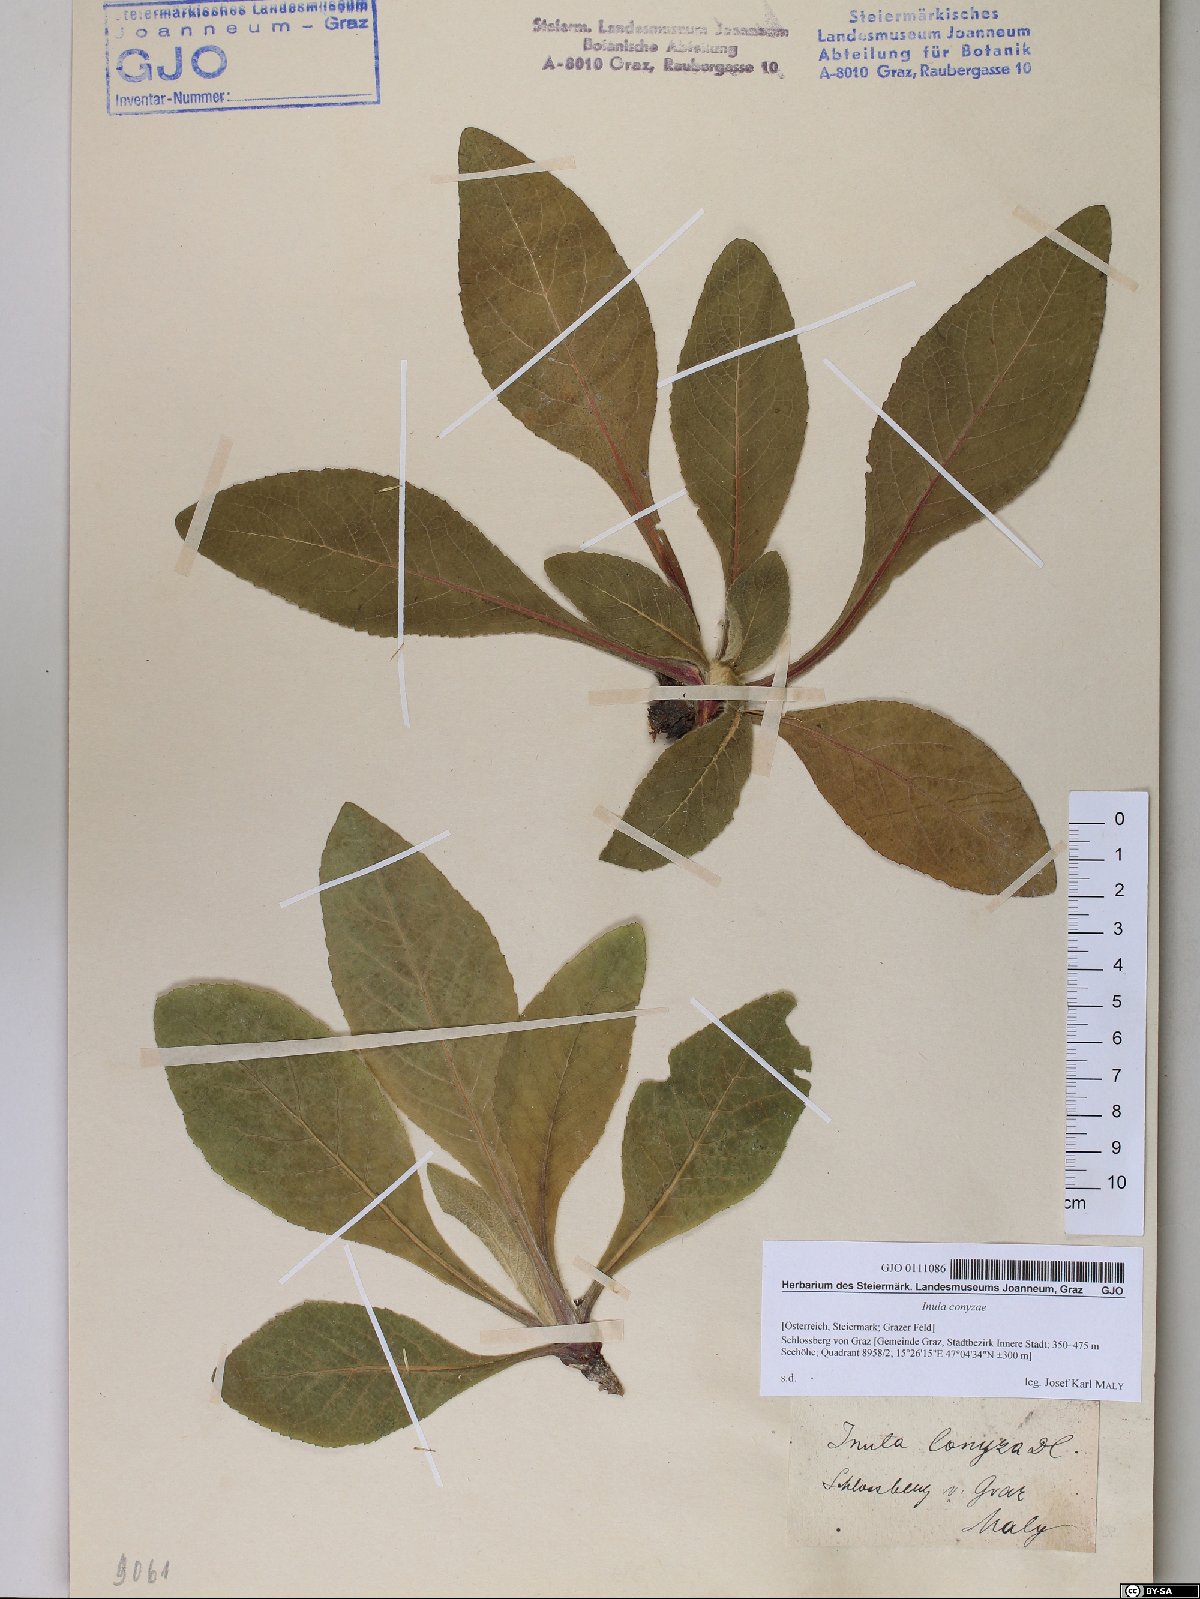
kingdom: Plantae
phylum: Tracheophyta
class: Magnoliopsida
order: Asterales
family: Asteraceae
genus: Pentanema
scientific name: Pentanema squarrosum
